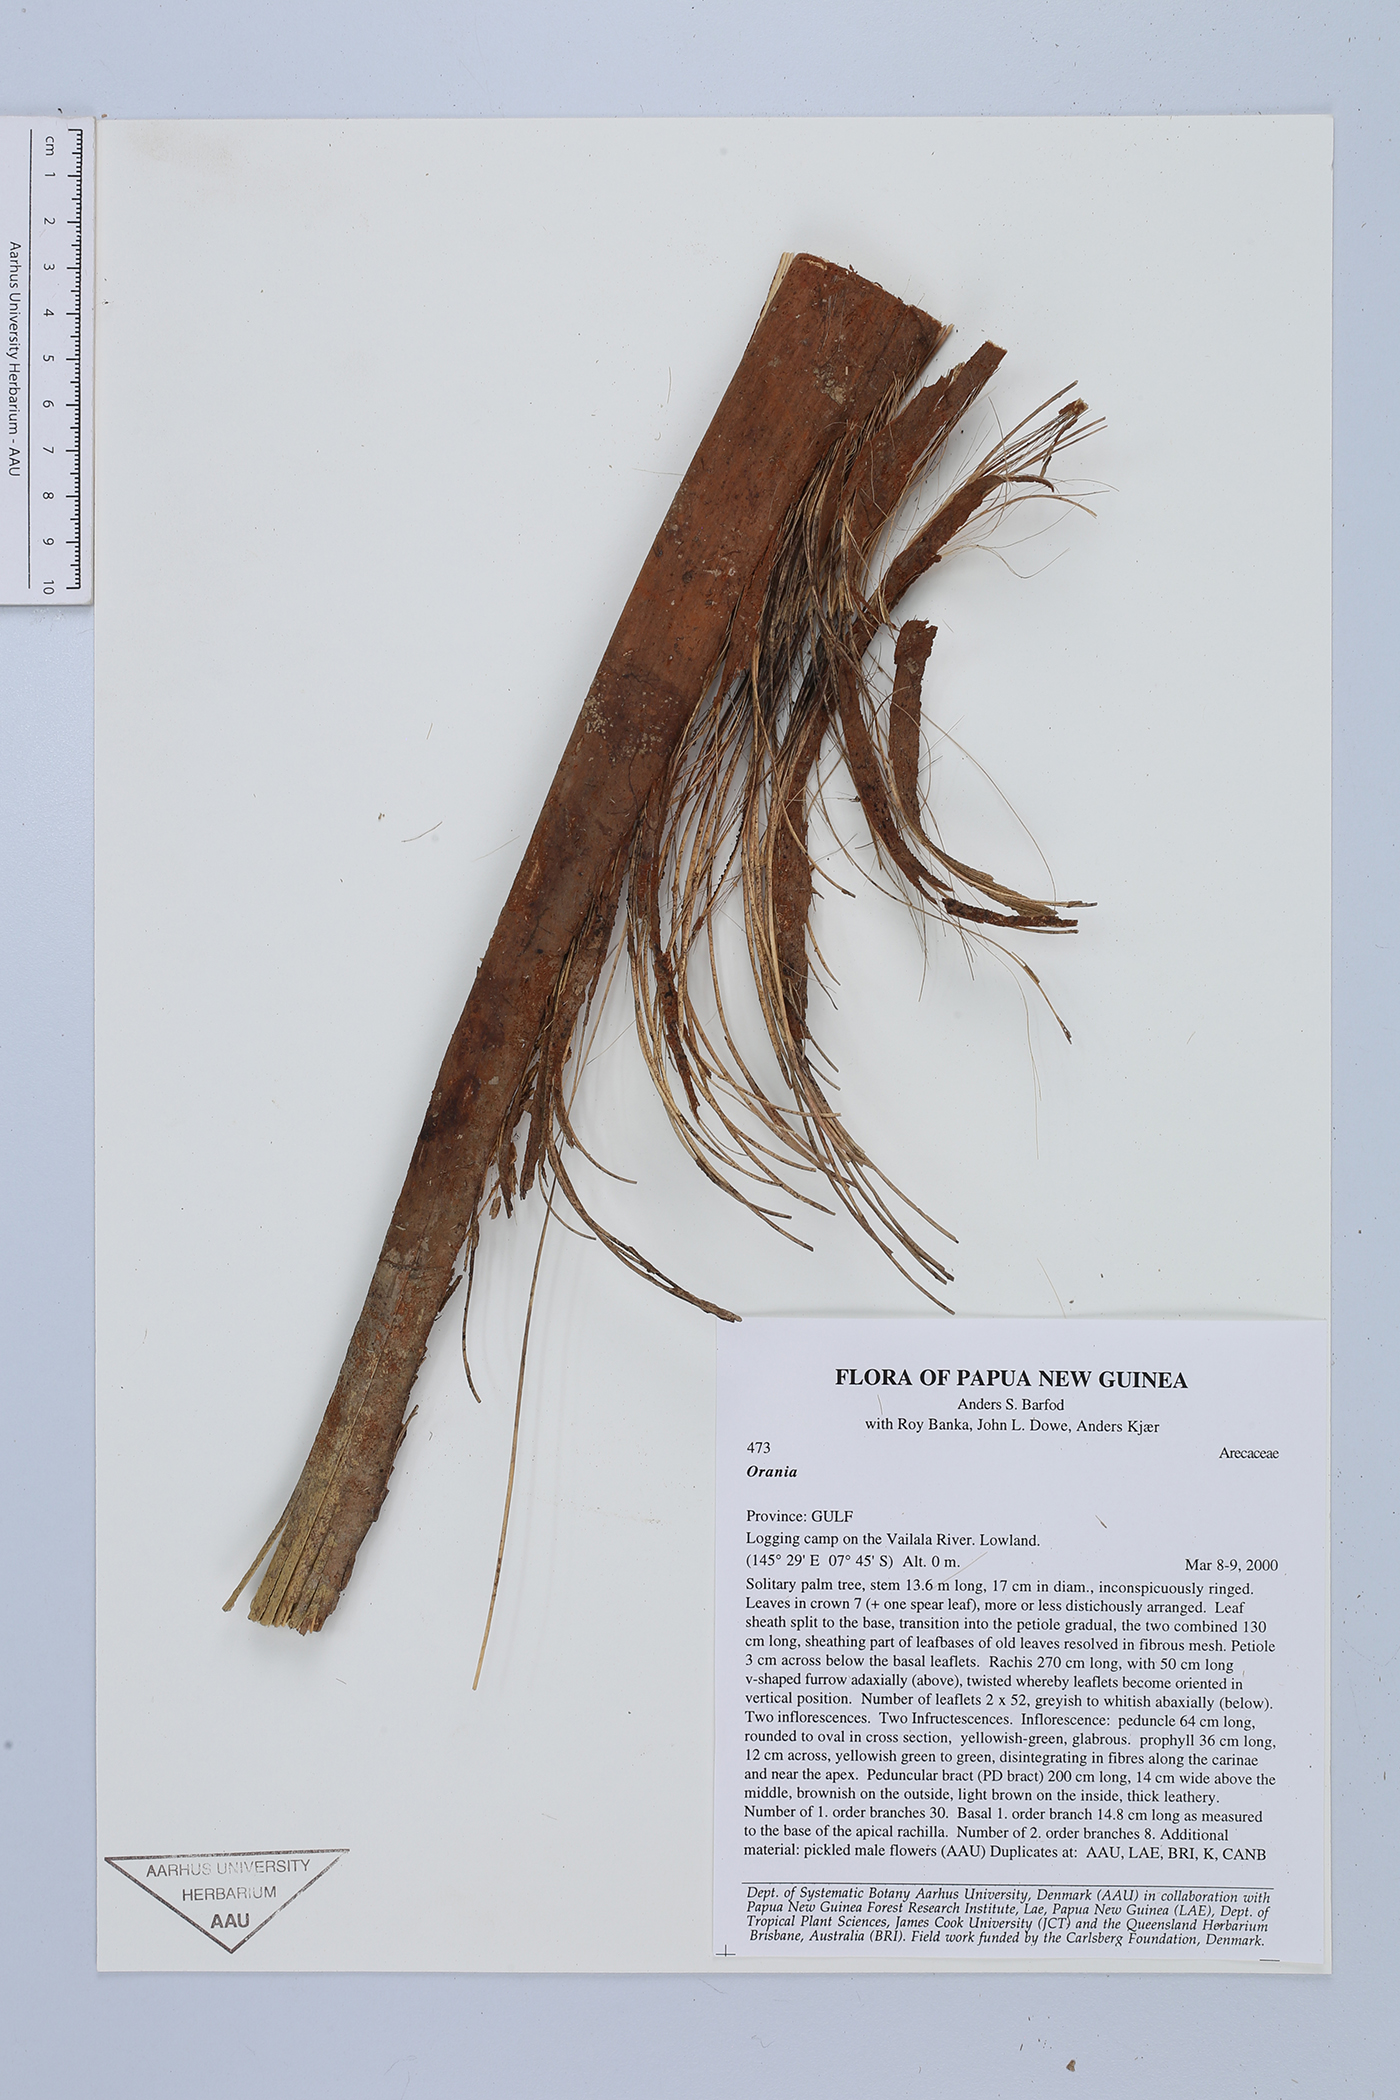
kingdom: Plantae
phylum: Tracheophyta
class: Liliopsida
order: Arecales
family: Arecaceae
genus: Orania
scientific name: Orania
